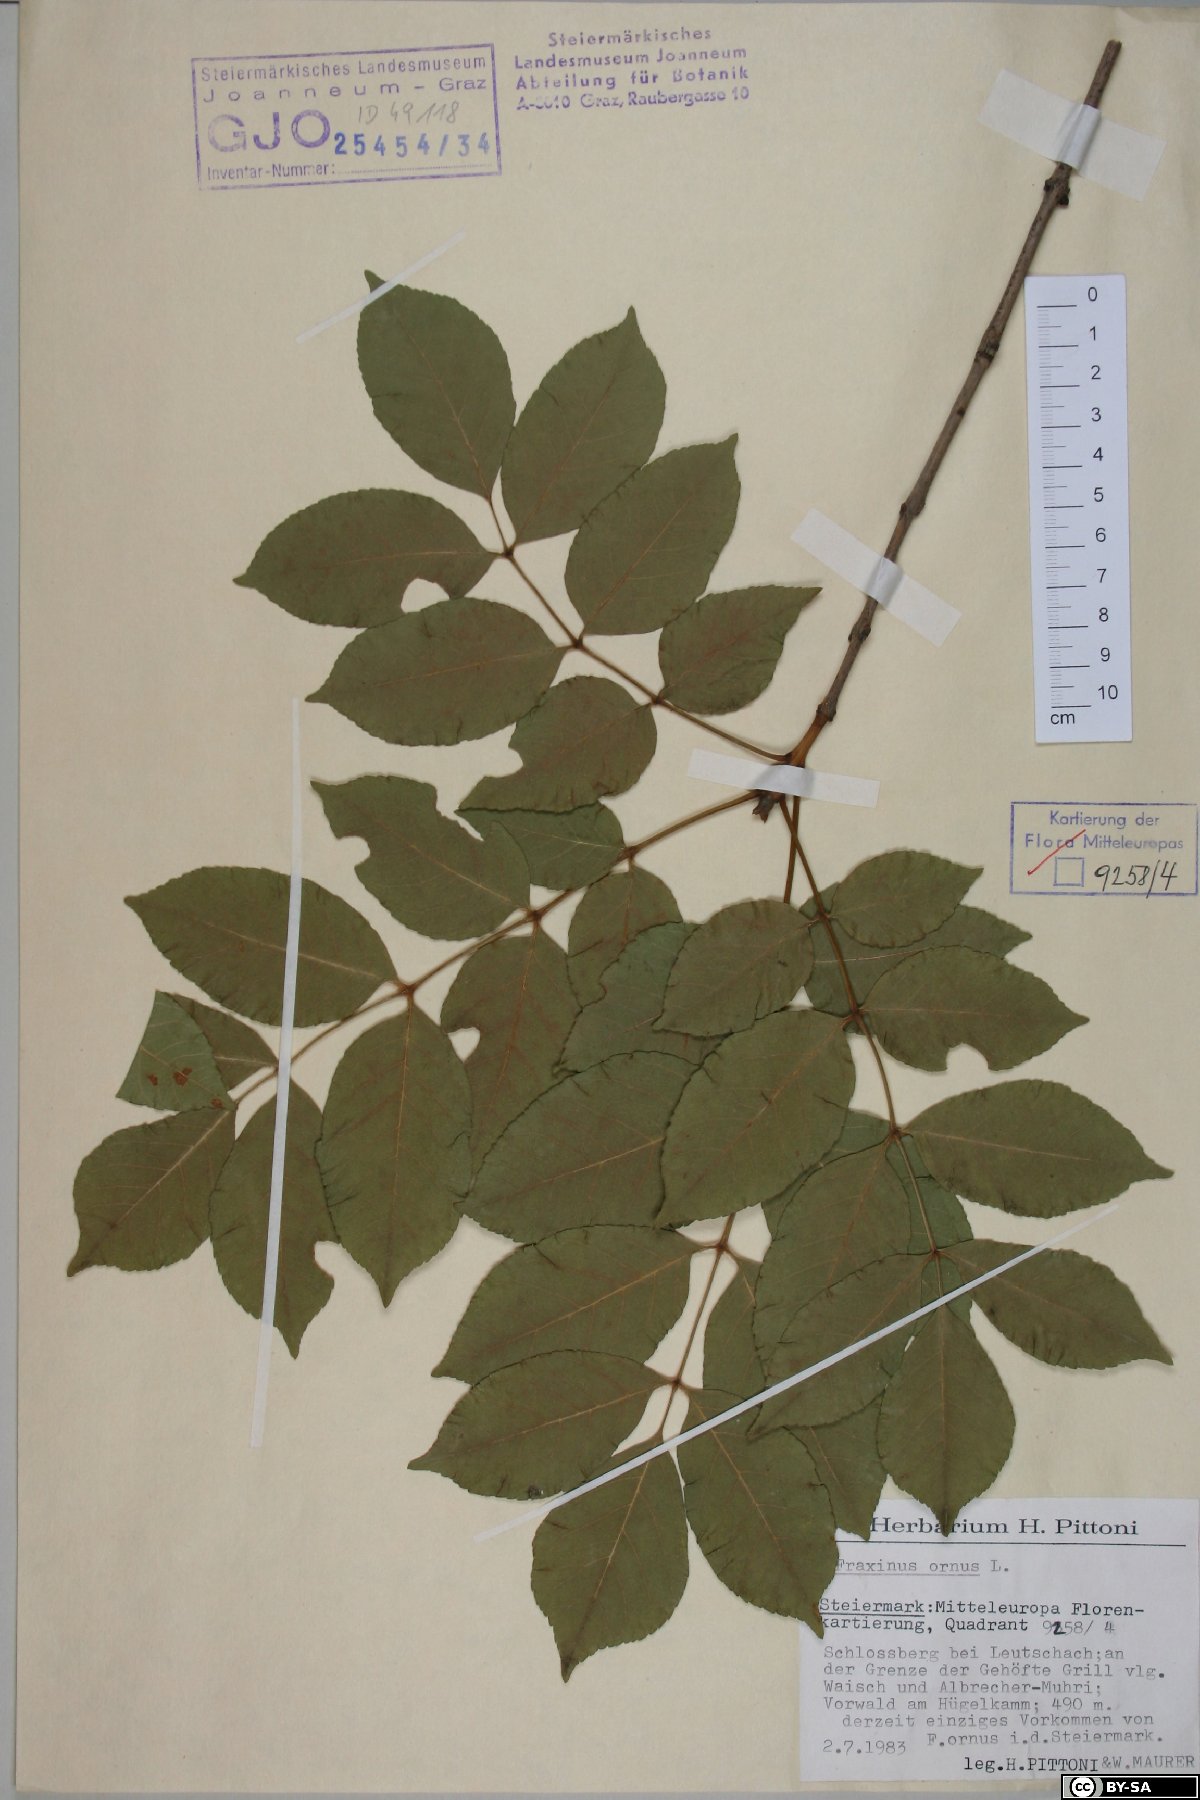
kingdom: Plantae
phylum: Tracheophyta
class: Magnoliopsida
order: Lamiales
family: Oleaceae
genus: Fraxinus
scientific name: Fraxinus ornus
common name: Manna ash
